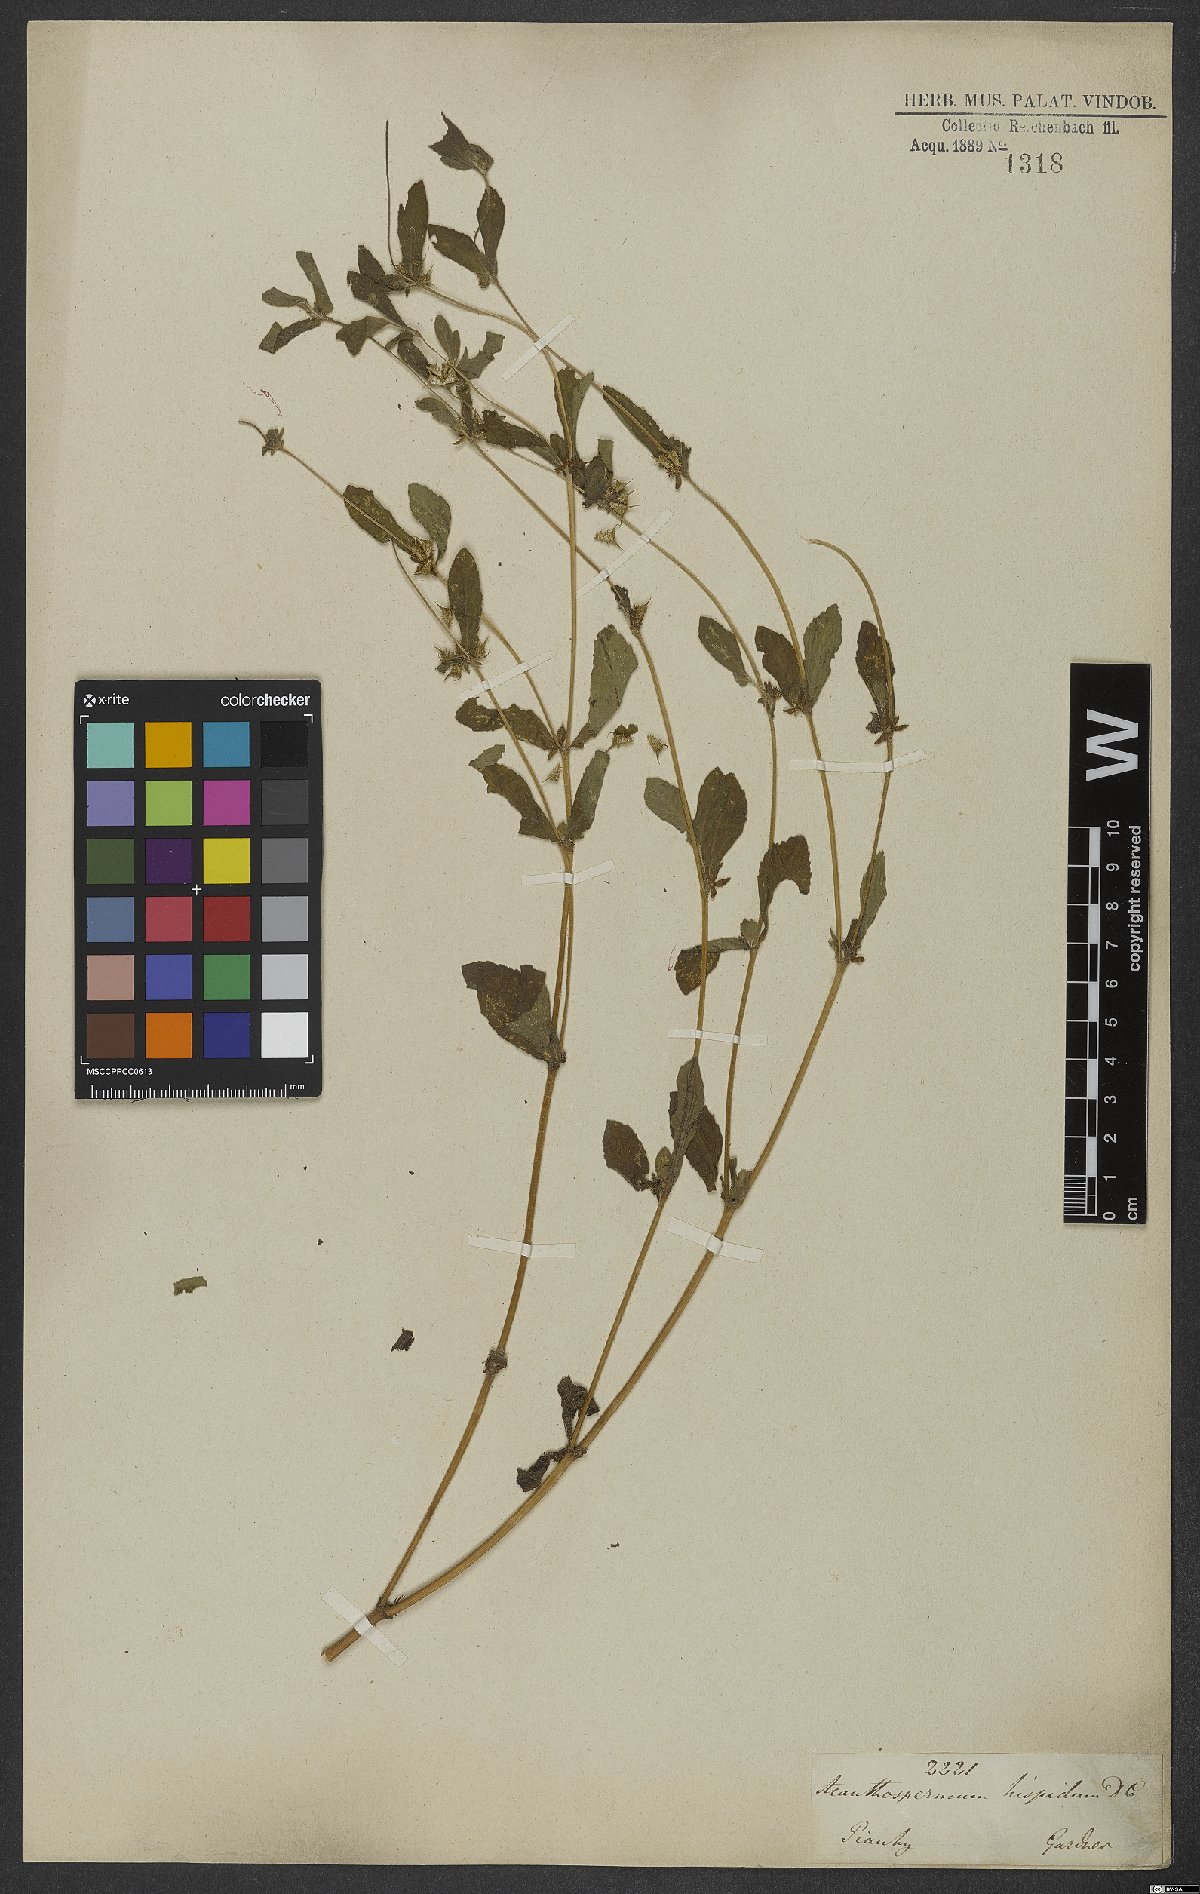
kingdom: Plantae
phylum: Tracheophyta
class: Magnoliopsida
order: Asterales
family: Asteraceae
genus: Acanthospermum
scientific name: Acanthospermum hispidum
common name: Hispid starbur
